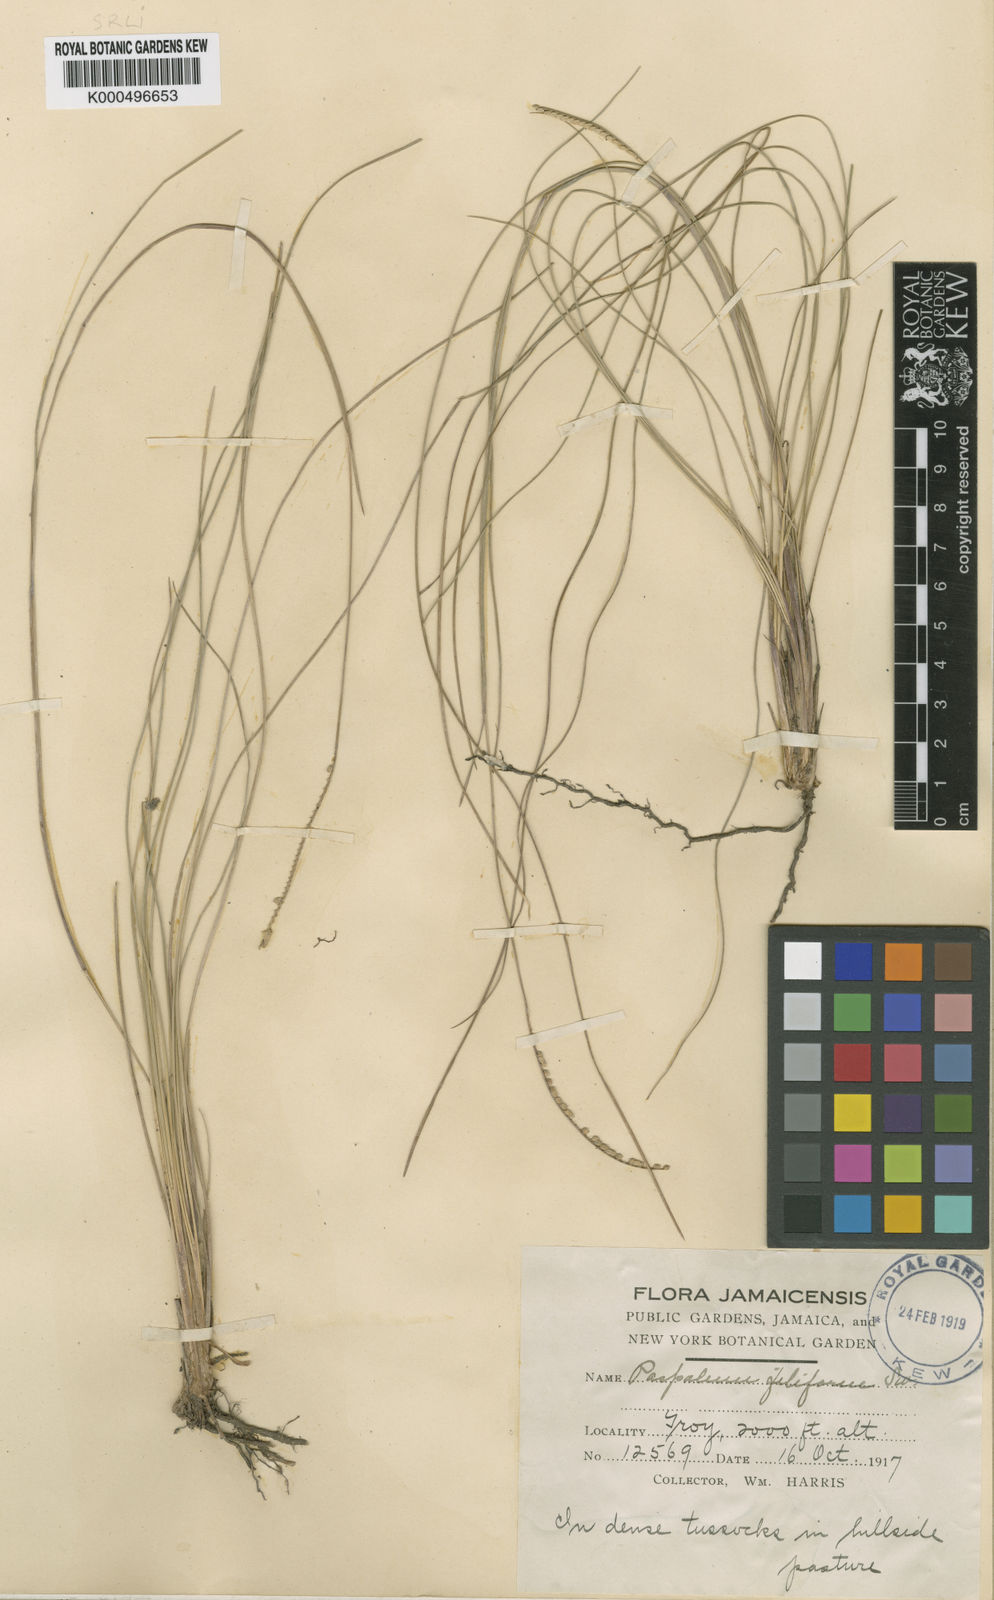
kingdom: Plantae
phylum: Tracheophyta
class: Liliopsida
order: Poales
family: Poaceae
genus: Paspalum
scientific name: Paspalum distortum
